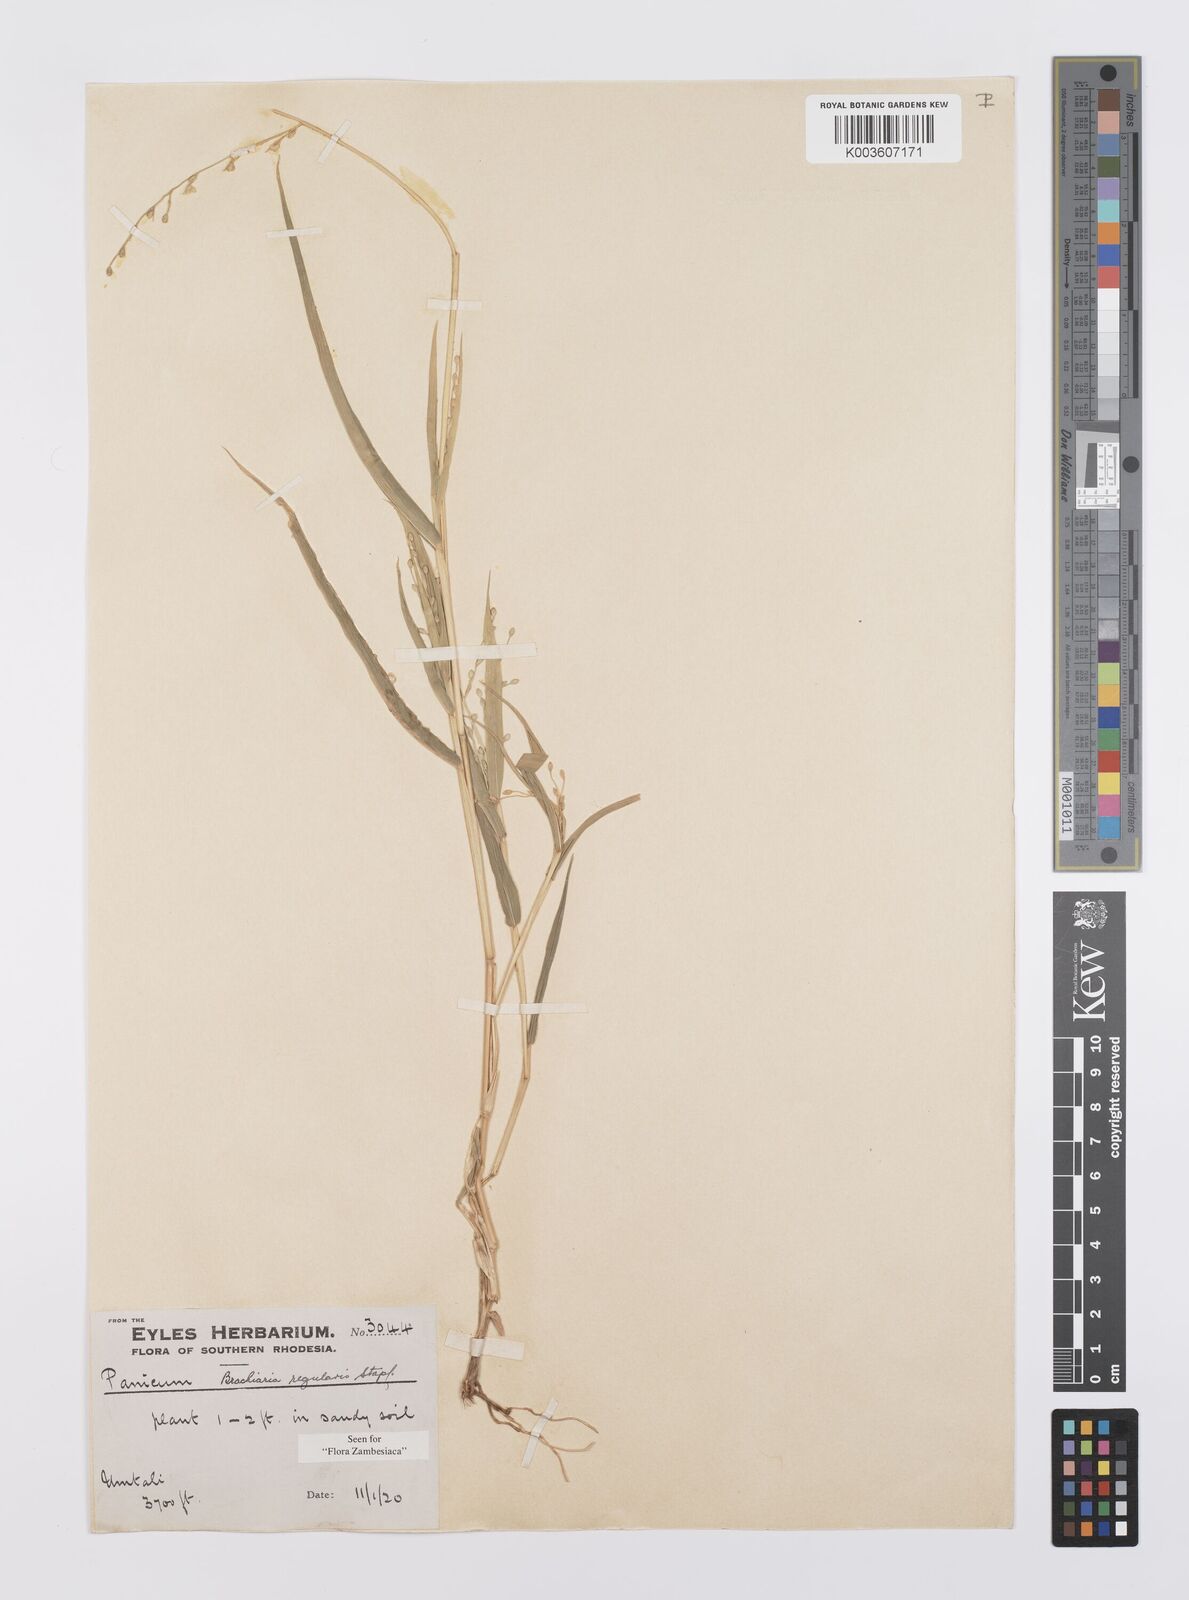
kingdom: Plantae
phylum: Tracheophyta
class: Liliopsida
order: Poales
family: Poaceae
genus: Urochloa
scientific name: Urochloa deflexa
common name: Guinea millet
